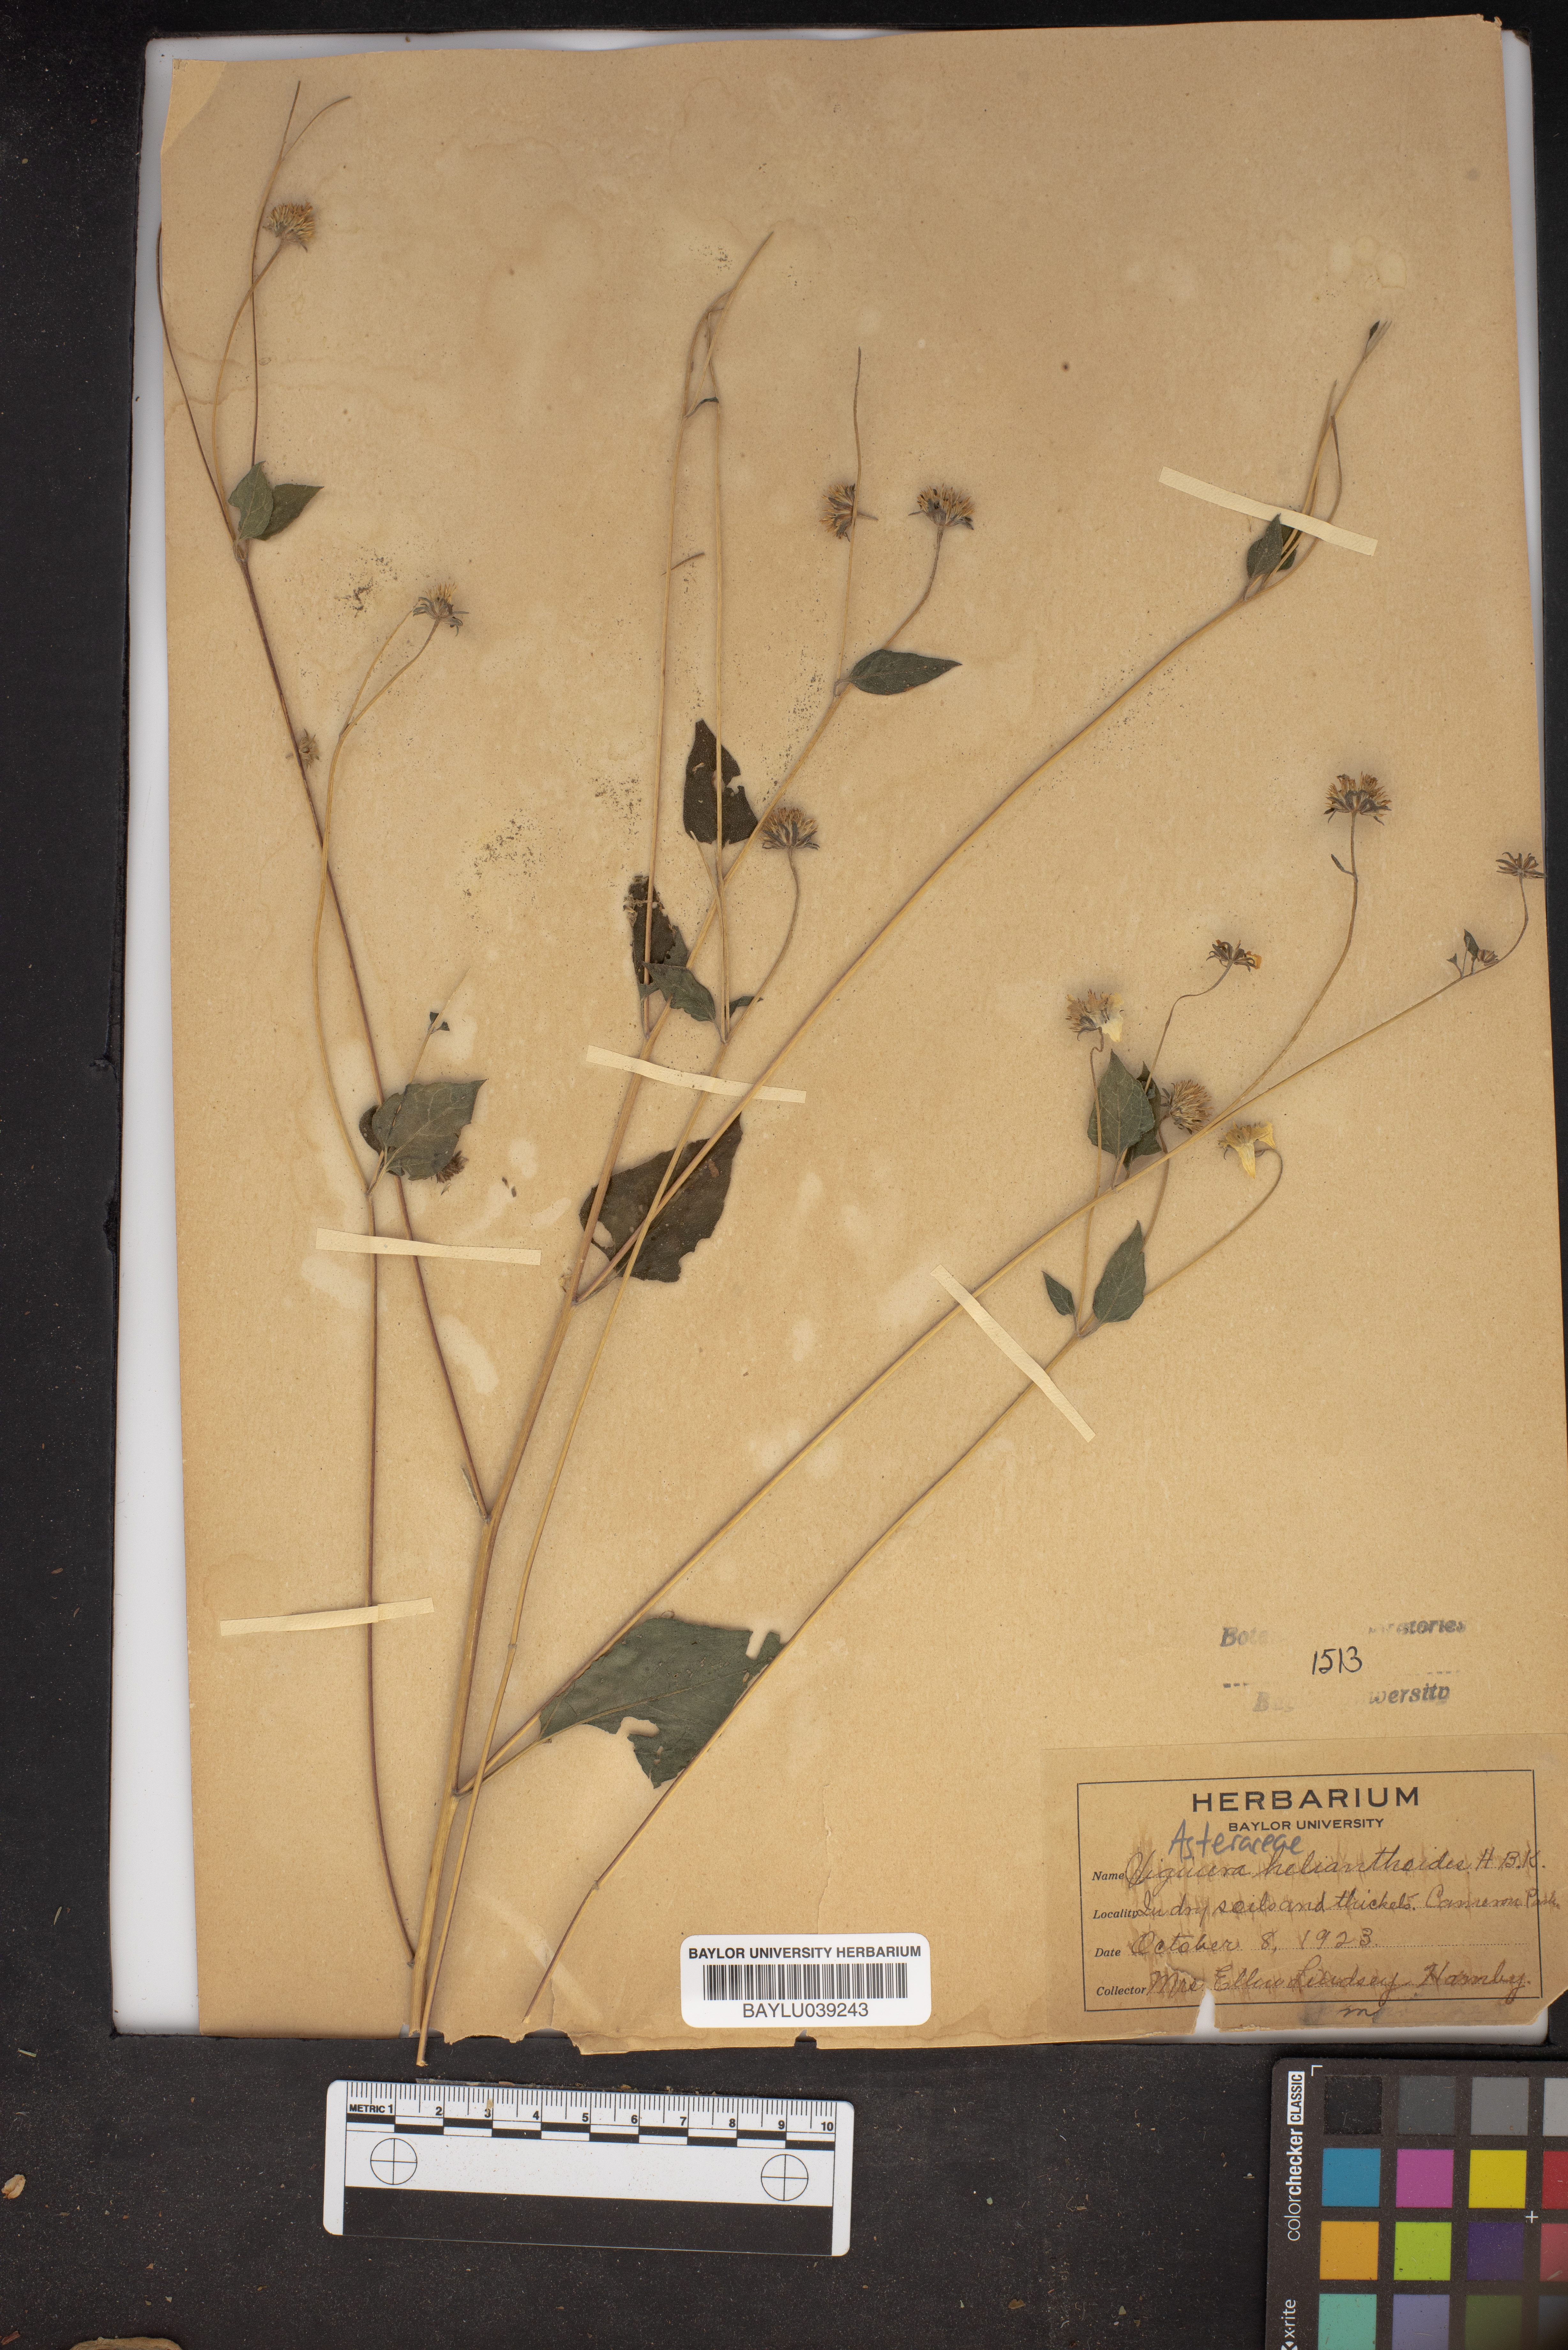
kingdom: Plantae
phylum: Tracheophyta
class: Magnoliopsida
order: Asterales
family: Asteraceae
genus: Viguiera
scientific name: Viguiera dentata
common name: Toothleaf
